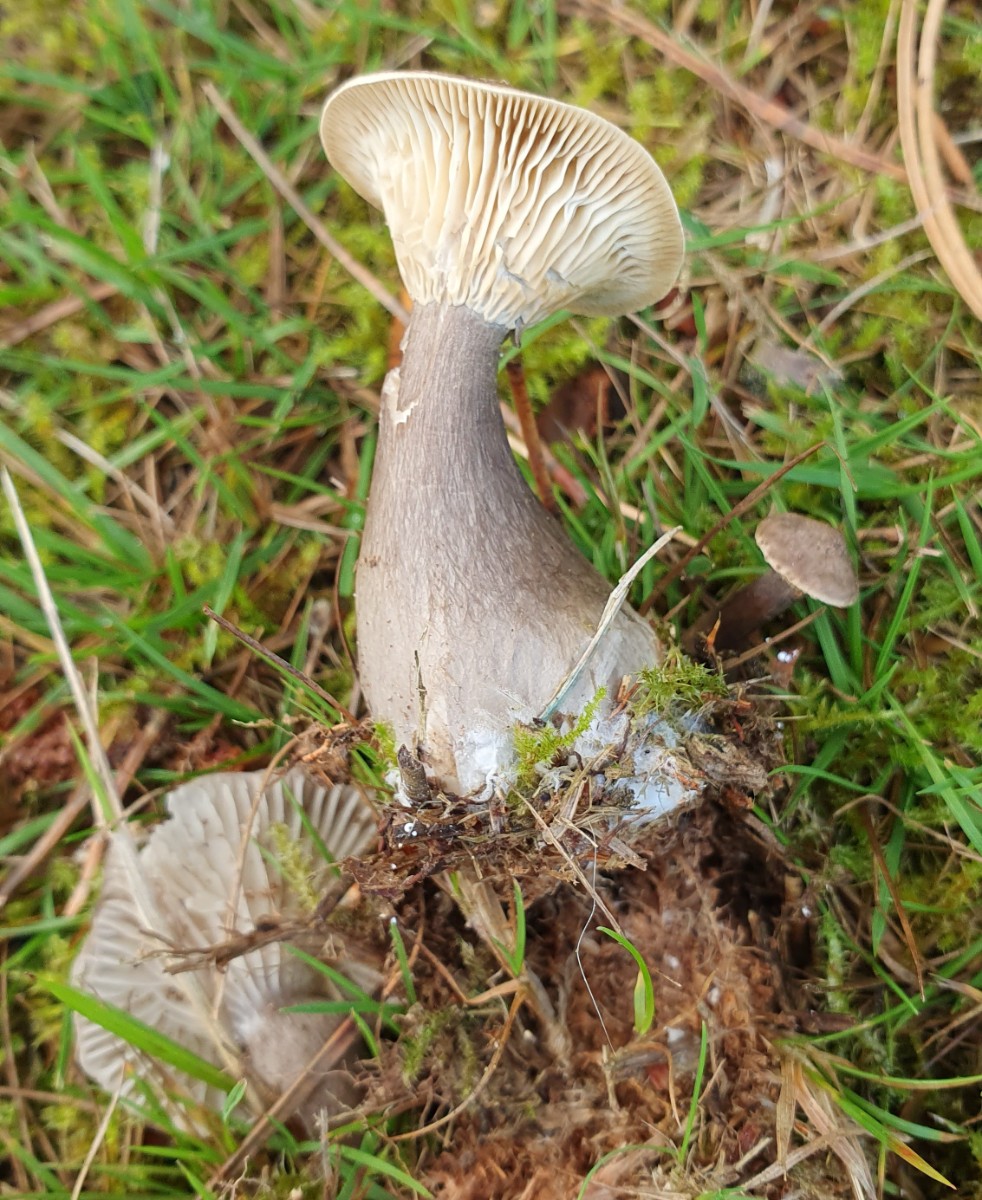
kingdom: Fungi
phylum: Basidiomycota
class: Agaricomycetes
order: Agaricales
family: Hygrophoraceae
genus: Ampulloclitocybe
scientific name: Ampulloclitocybe clavipes
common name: køllefod
